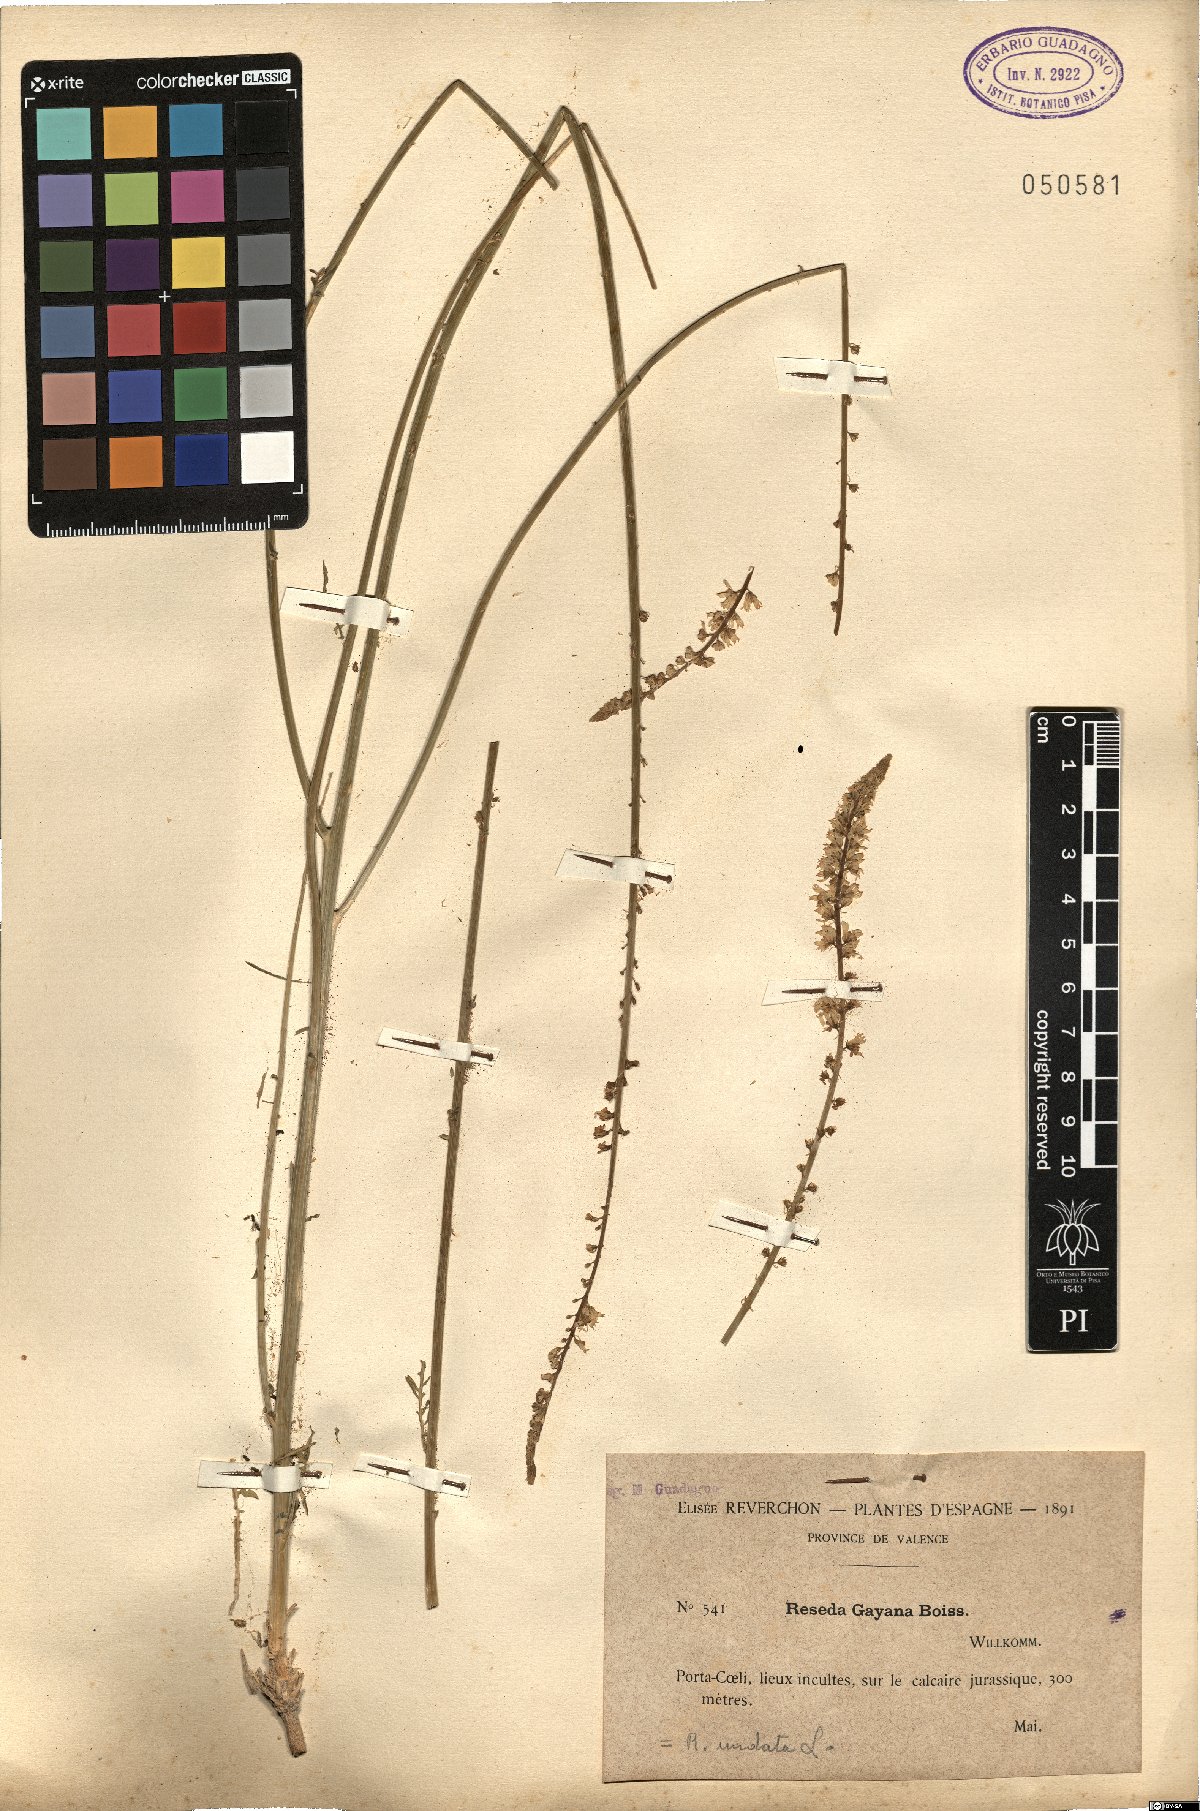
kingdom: Plantae
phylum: Tracheophyta
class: Magnoliopsida
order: Brassicales
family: Resedaceae
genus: Reseda
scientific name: Reseda undata
